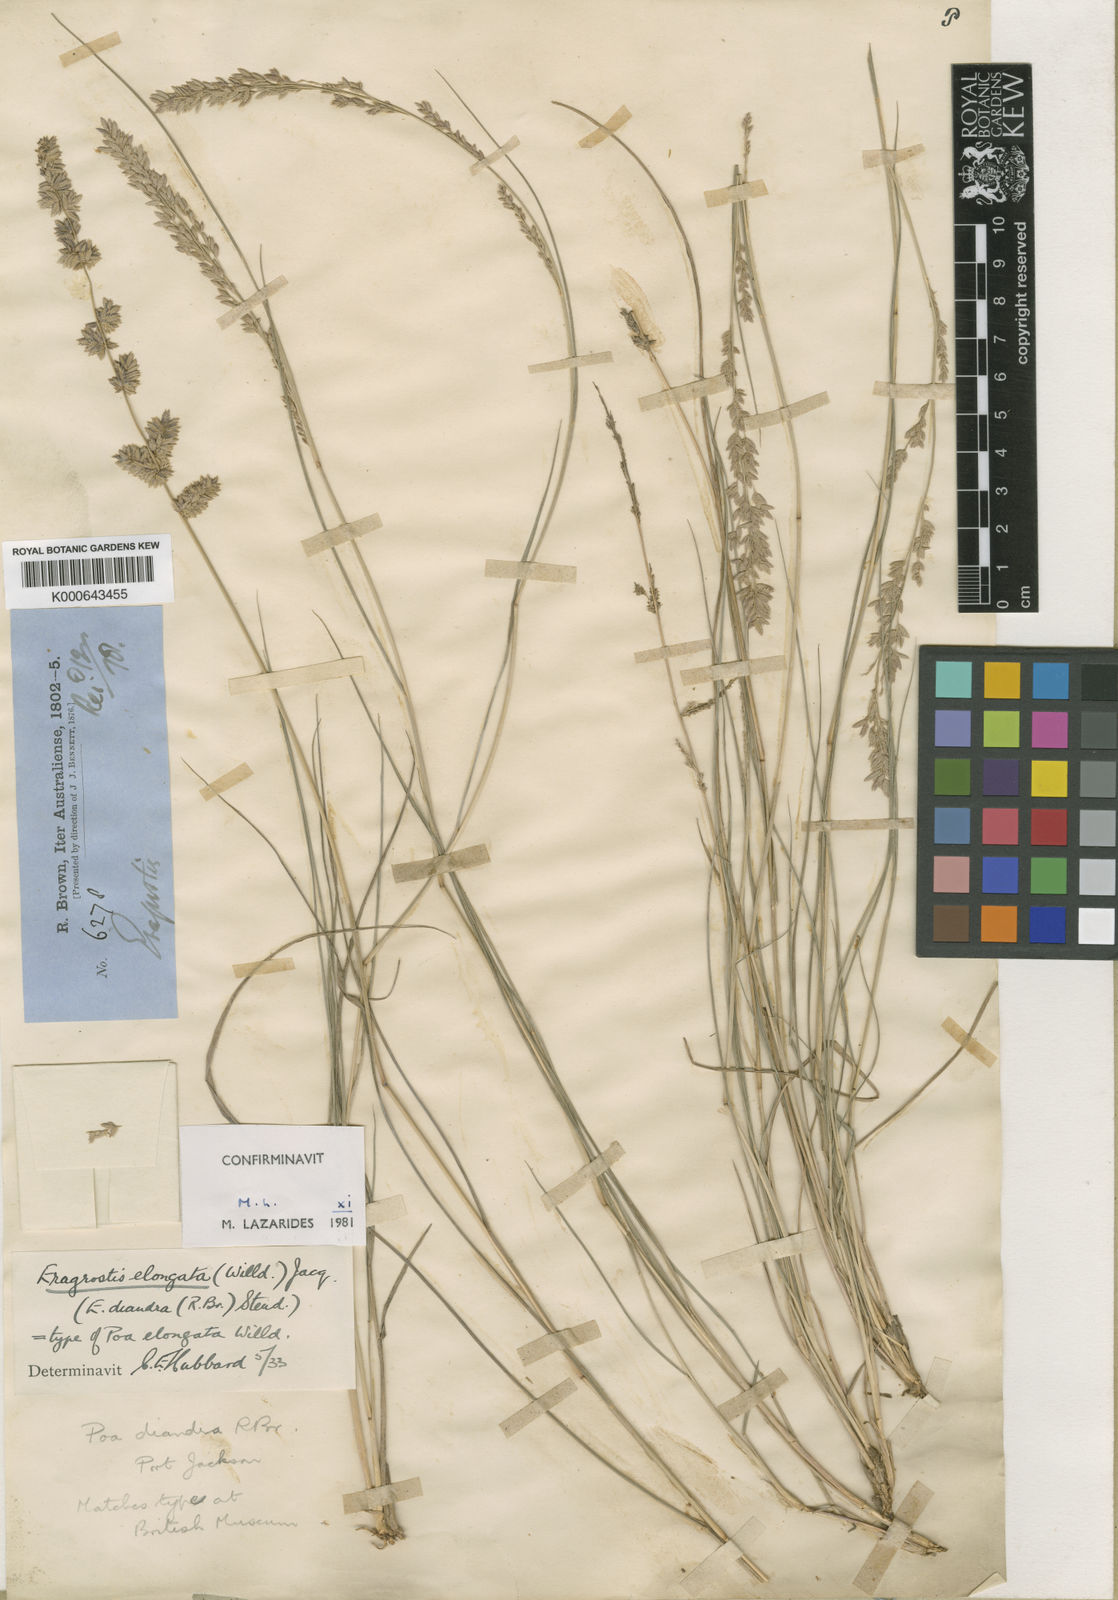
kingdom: Plantae
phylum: Tracheophyta
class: Liliopsida
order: Poales
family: Poaceae
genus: Eragrostis
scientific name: Eragrostis elongata
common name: Long lovegrass
